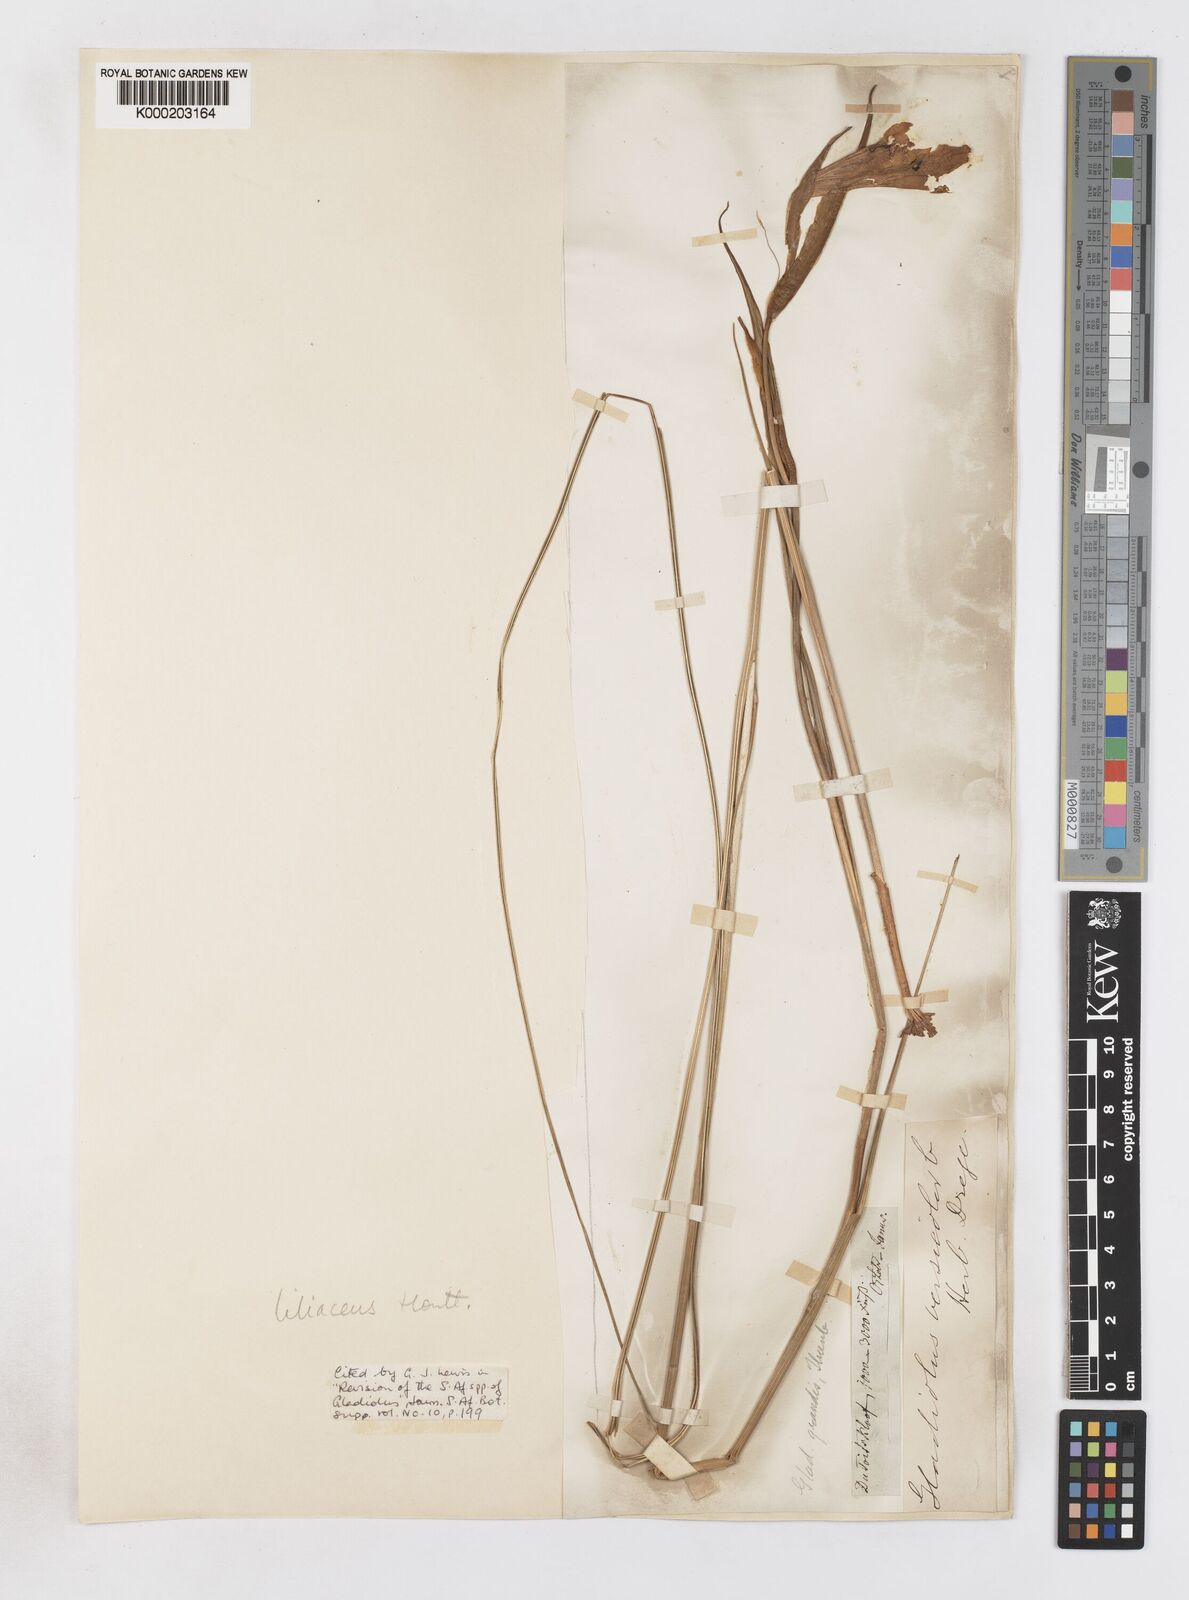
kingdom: Plantae
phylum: Tracheophyta
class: Liliopsida
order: Asparagales
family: Iridaceae
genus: Gladiolus
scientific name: Gladiolus liliaceus
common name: Large brown afrikaner
